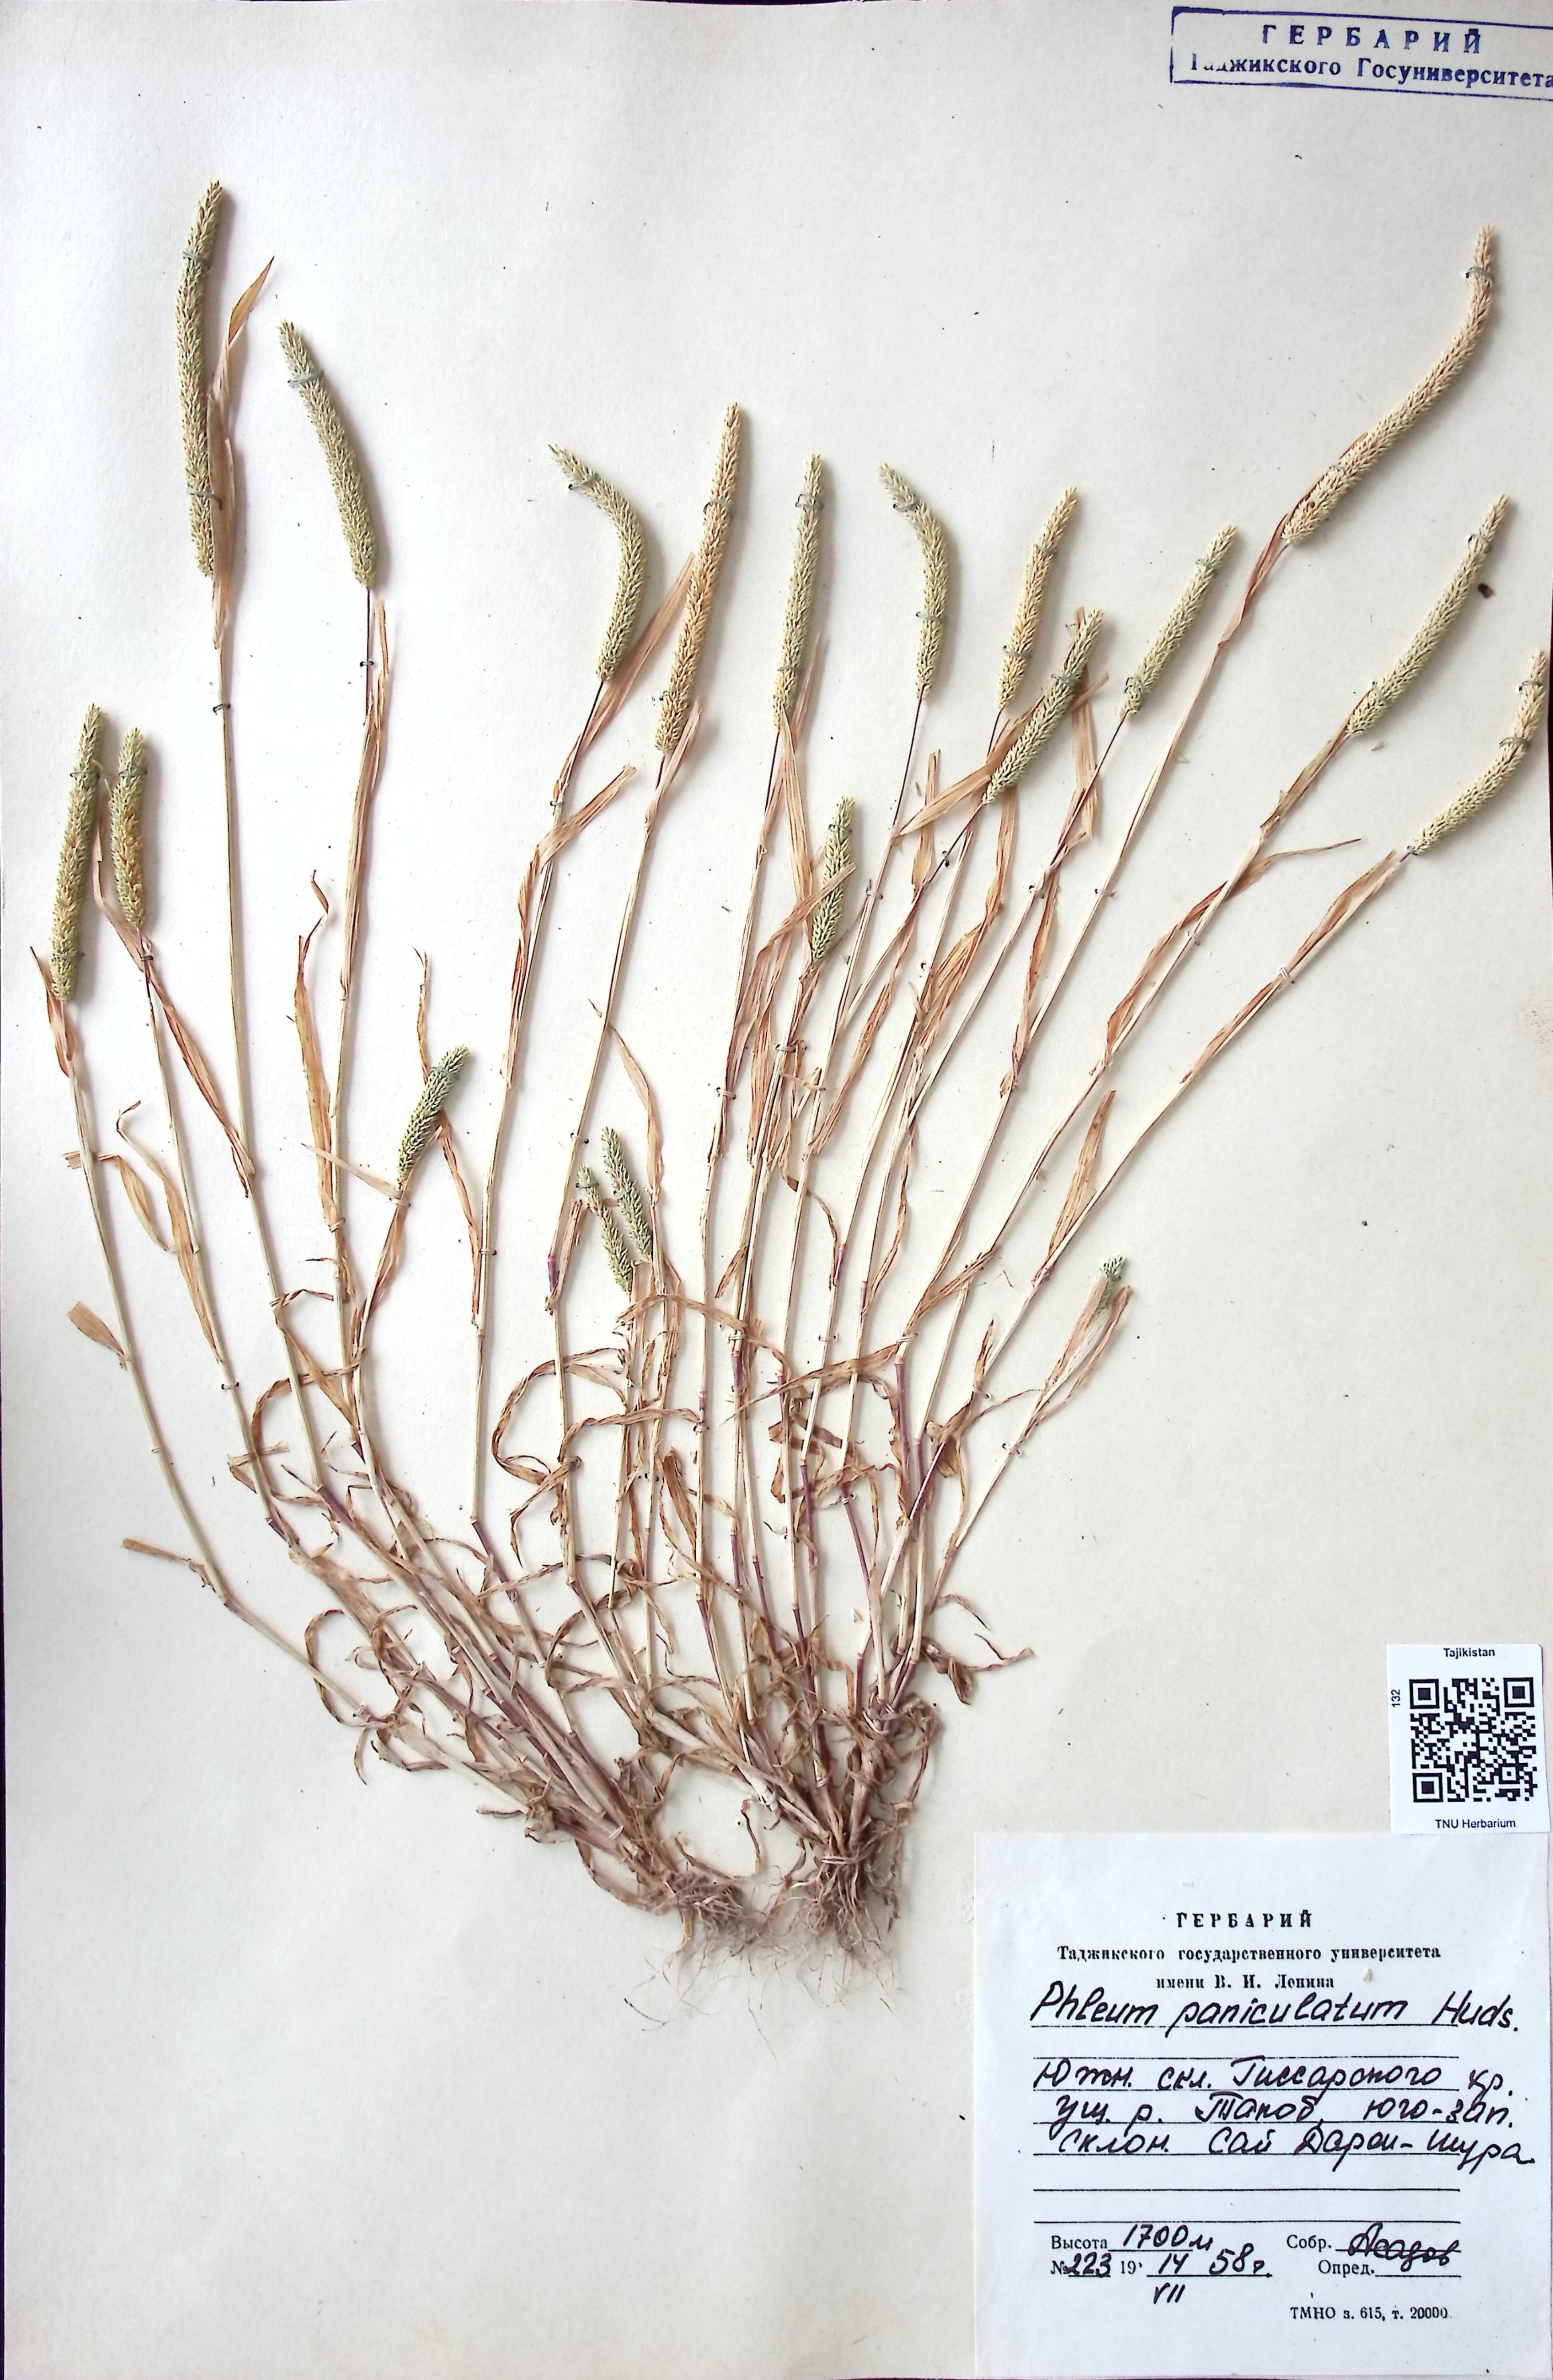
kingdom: Plantae
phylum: Tracheophyta
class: Liliopsida
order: Poales
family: Poaceae
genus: Phleum
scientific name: Phleum paniculatum
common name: British timothy
